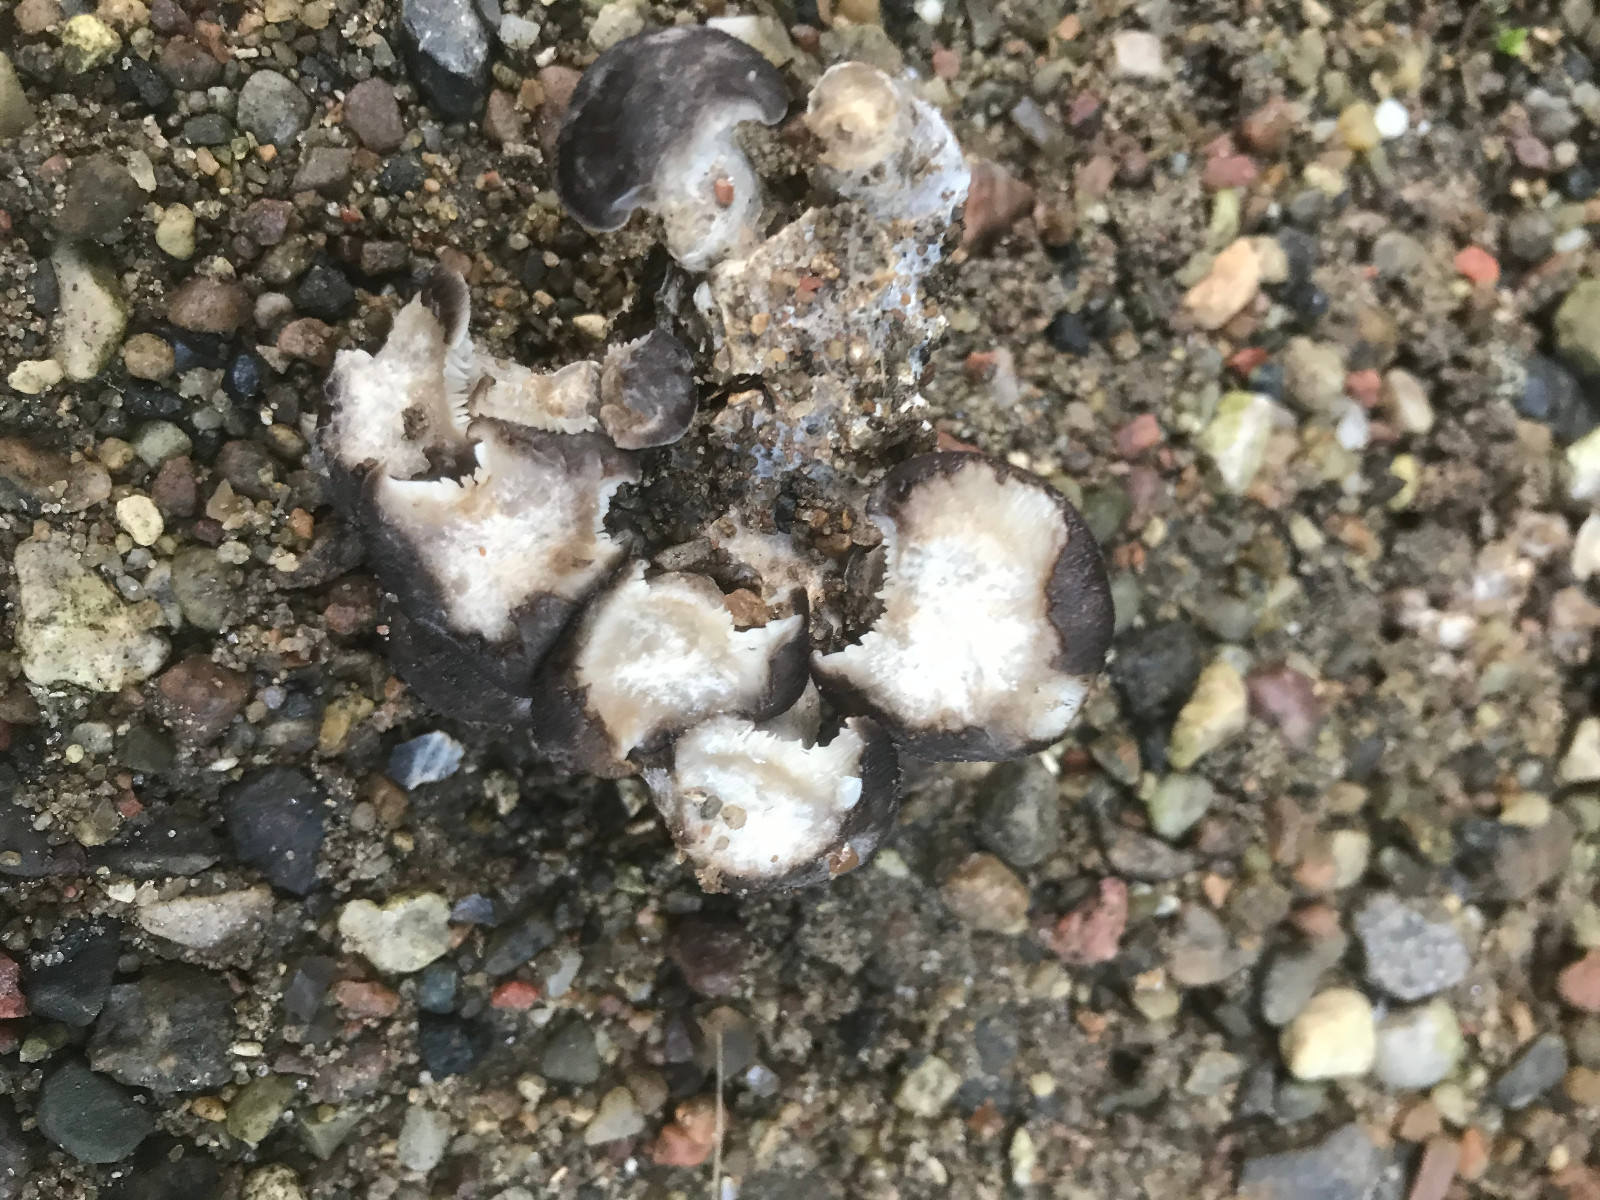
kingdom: Fungi
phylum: Basidiomycota
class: Agaricomycetes
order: Agaricales
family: Lyophyllaceae
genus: Lyophyllum
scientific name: Lyophyllum decastes
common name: røggrå gråblad
